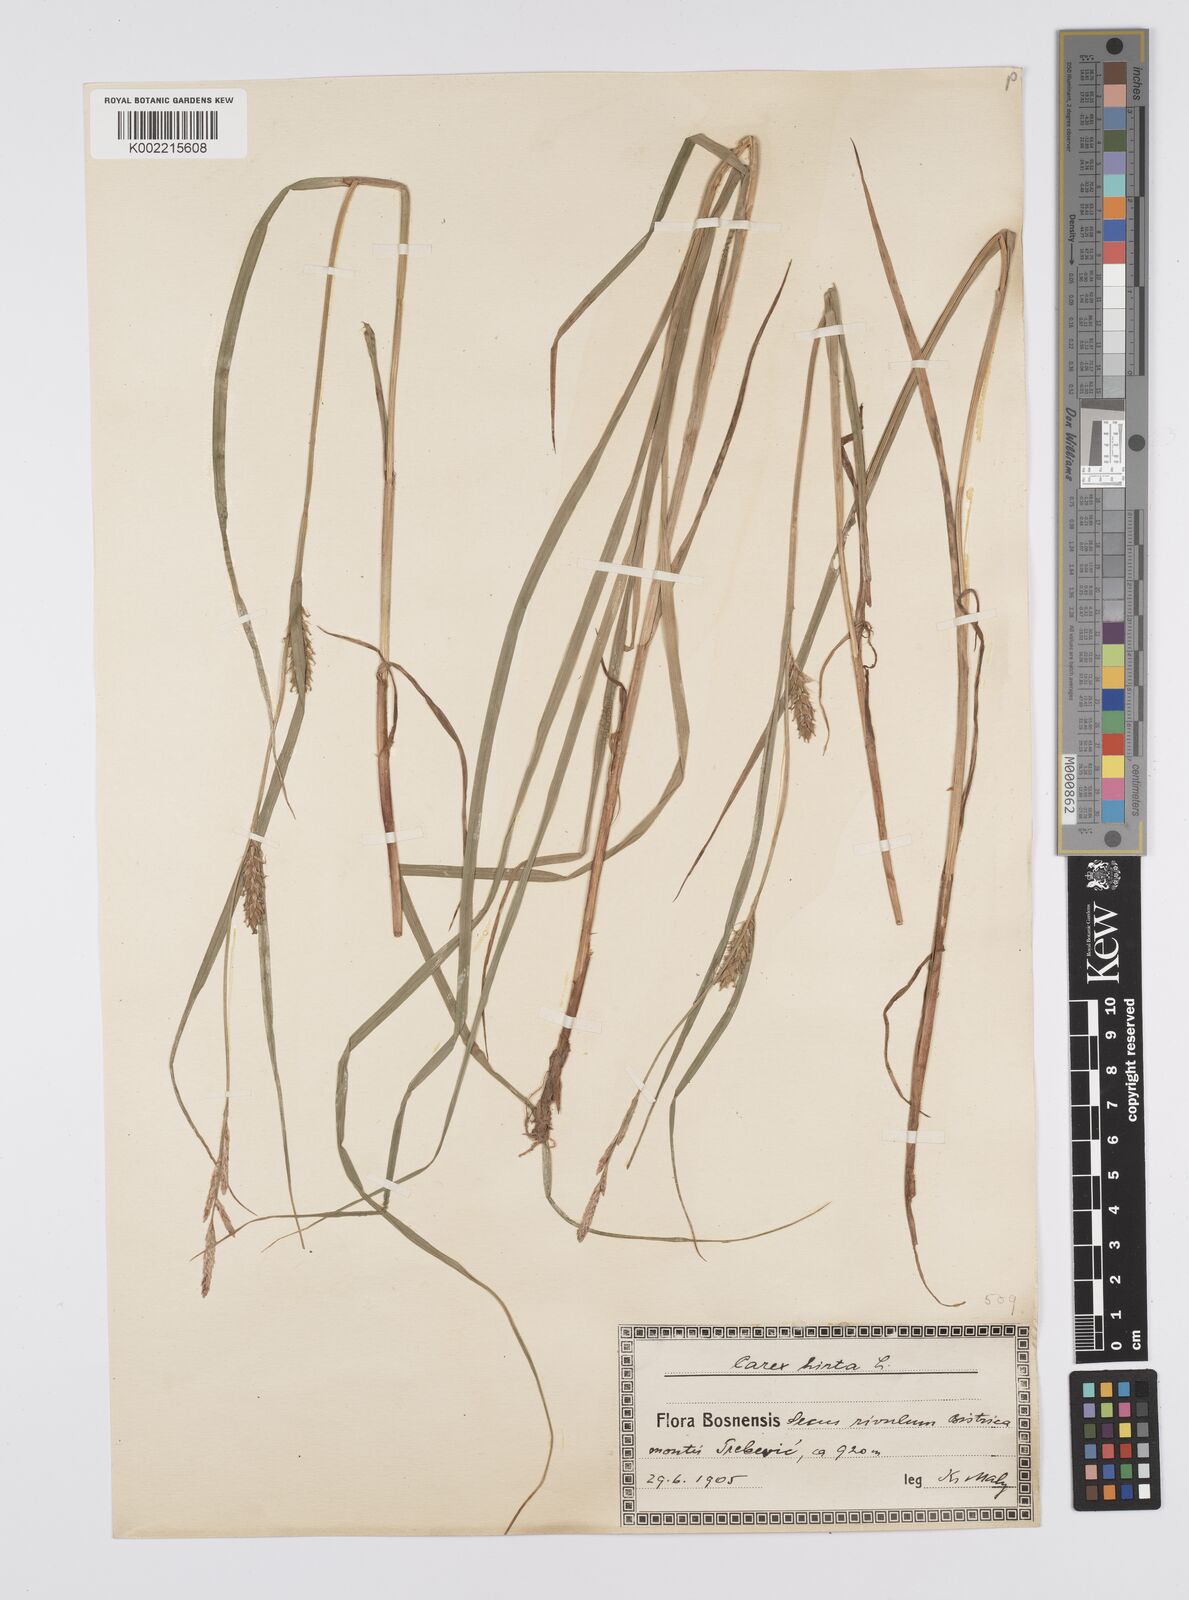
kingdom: Plantae
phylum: Tracheophyta
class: Liliopsida
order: Poales
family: Cyperaceae
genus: Carex
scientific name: Carex hirta
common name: Hairy sedge
